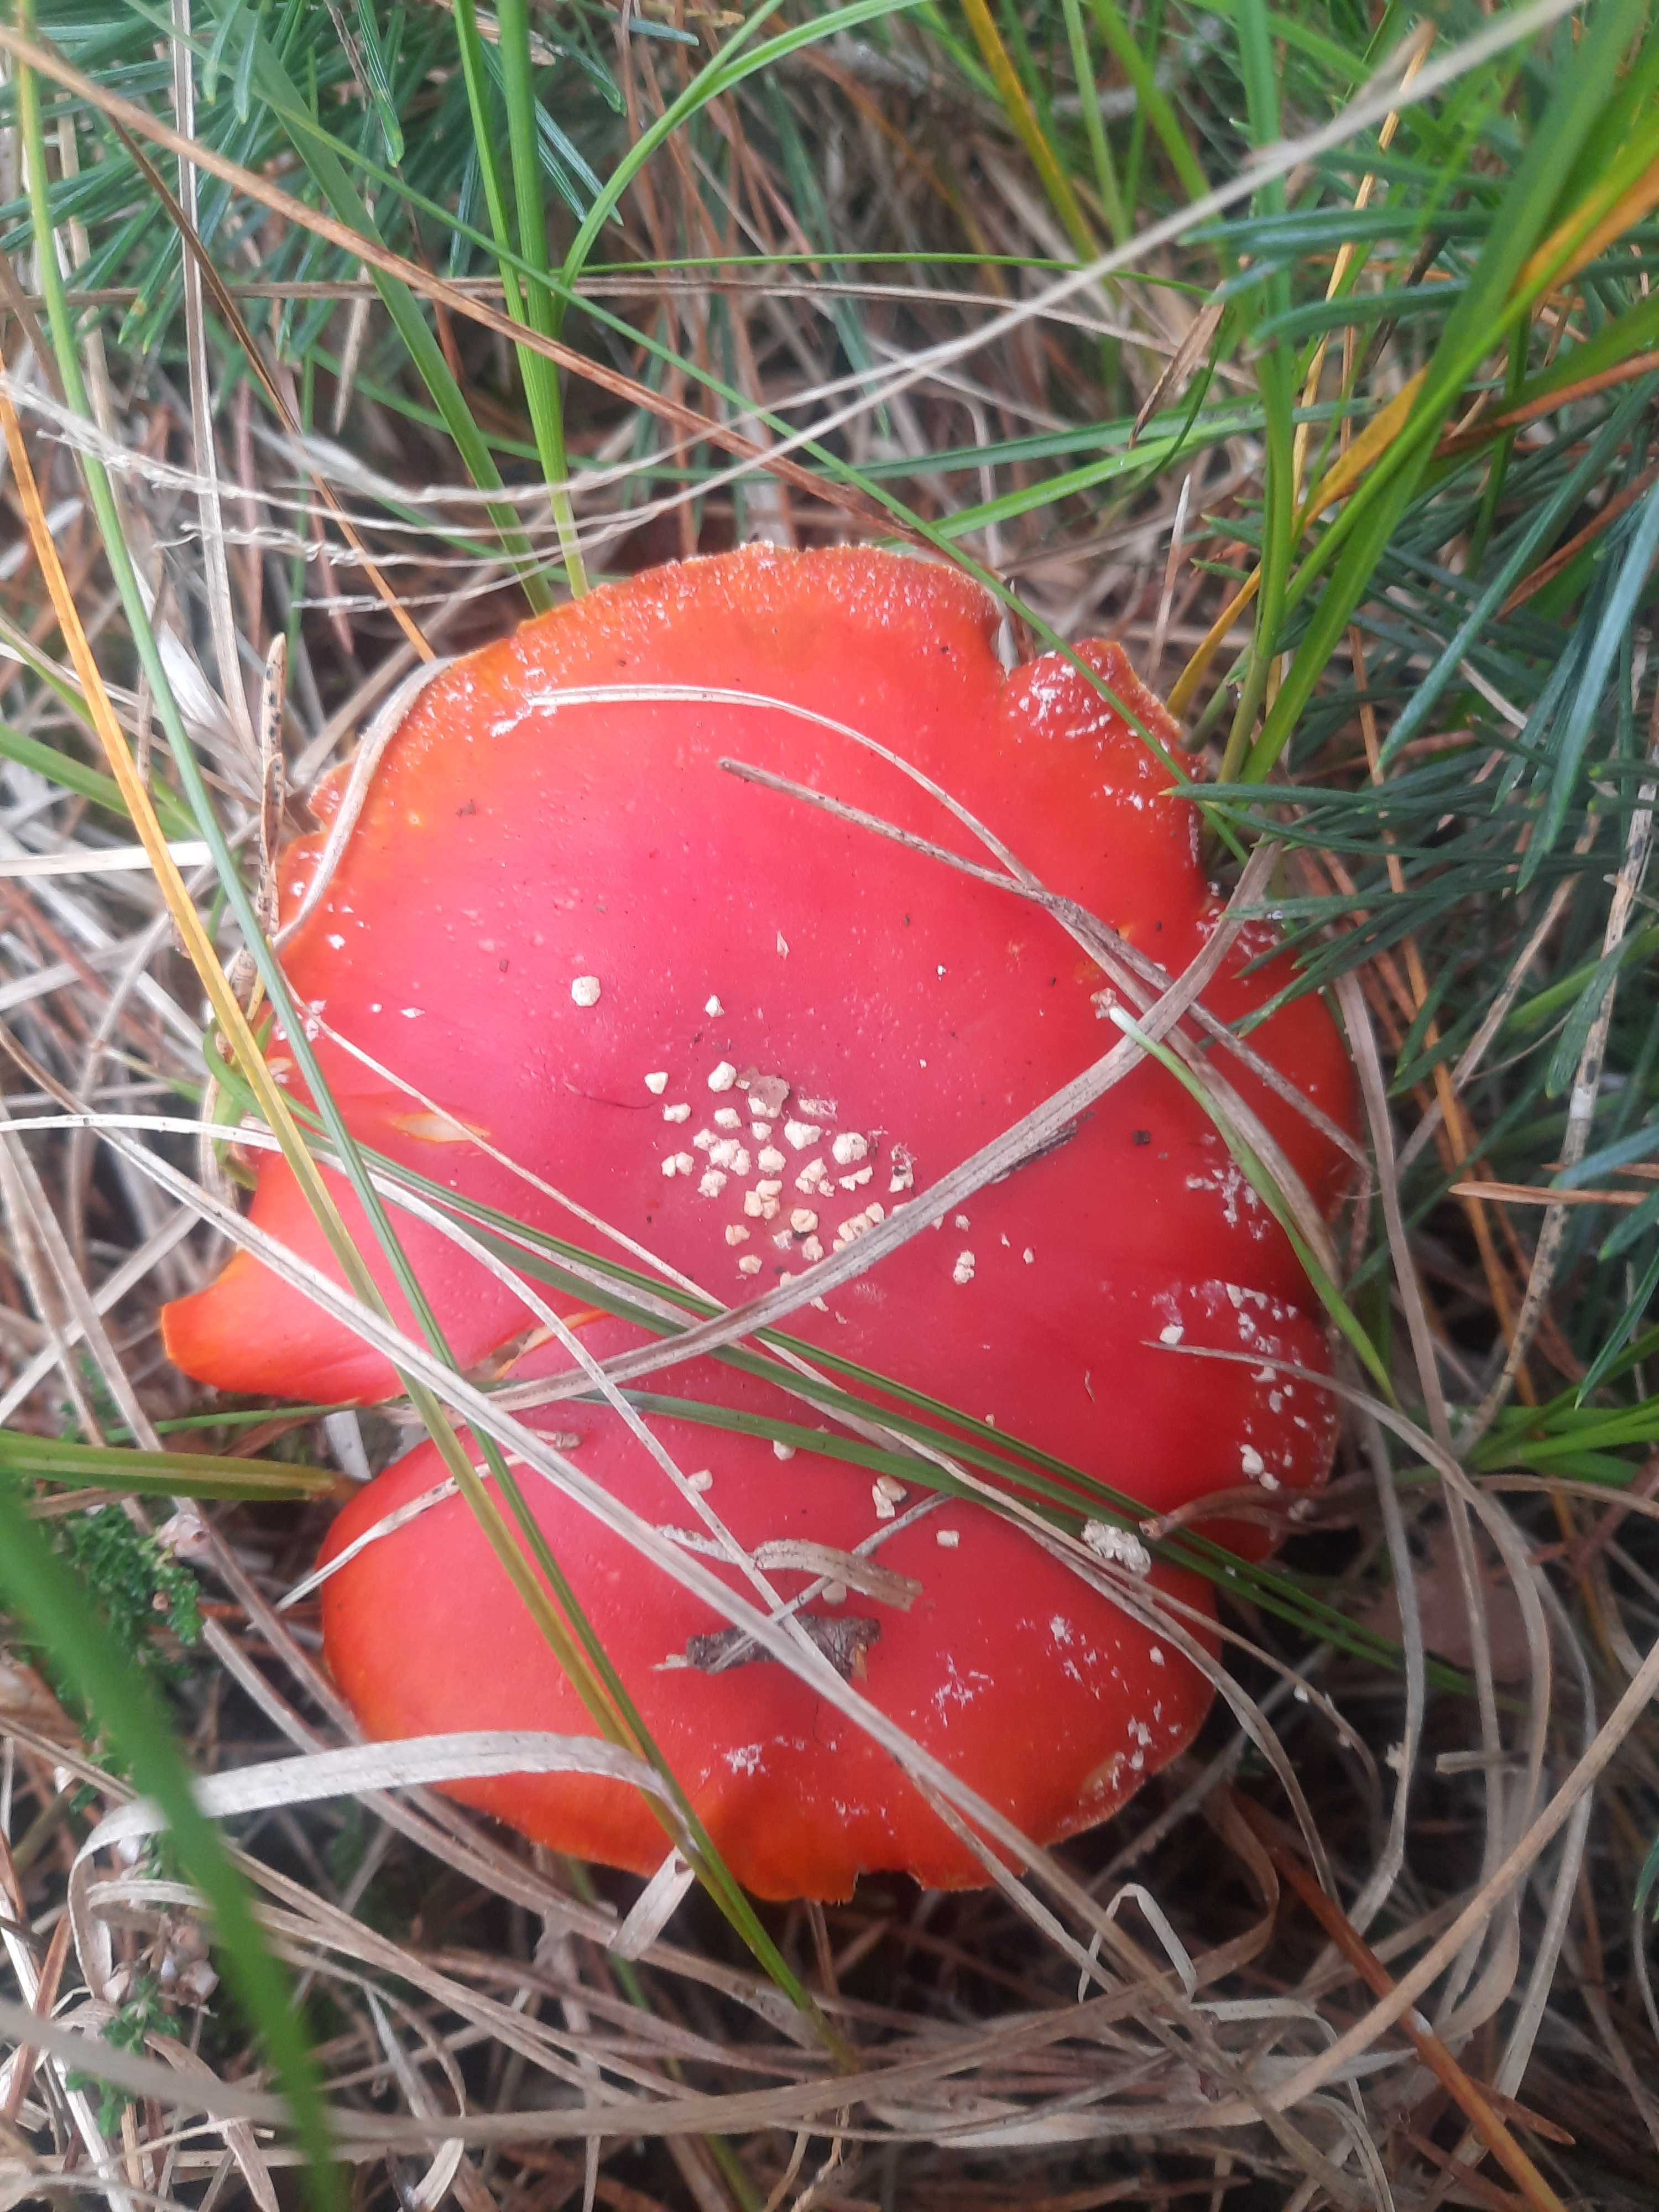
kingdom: Fungi
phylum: Basidiomycota
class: Agaricomycetes
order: Agaricales
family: Amanitaceae
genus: Amanita
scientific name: Amanita muscaria
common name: rød fluesvamp
